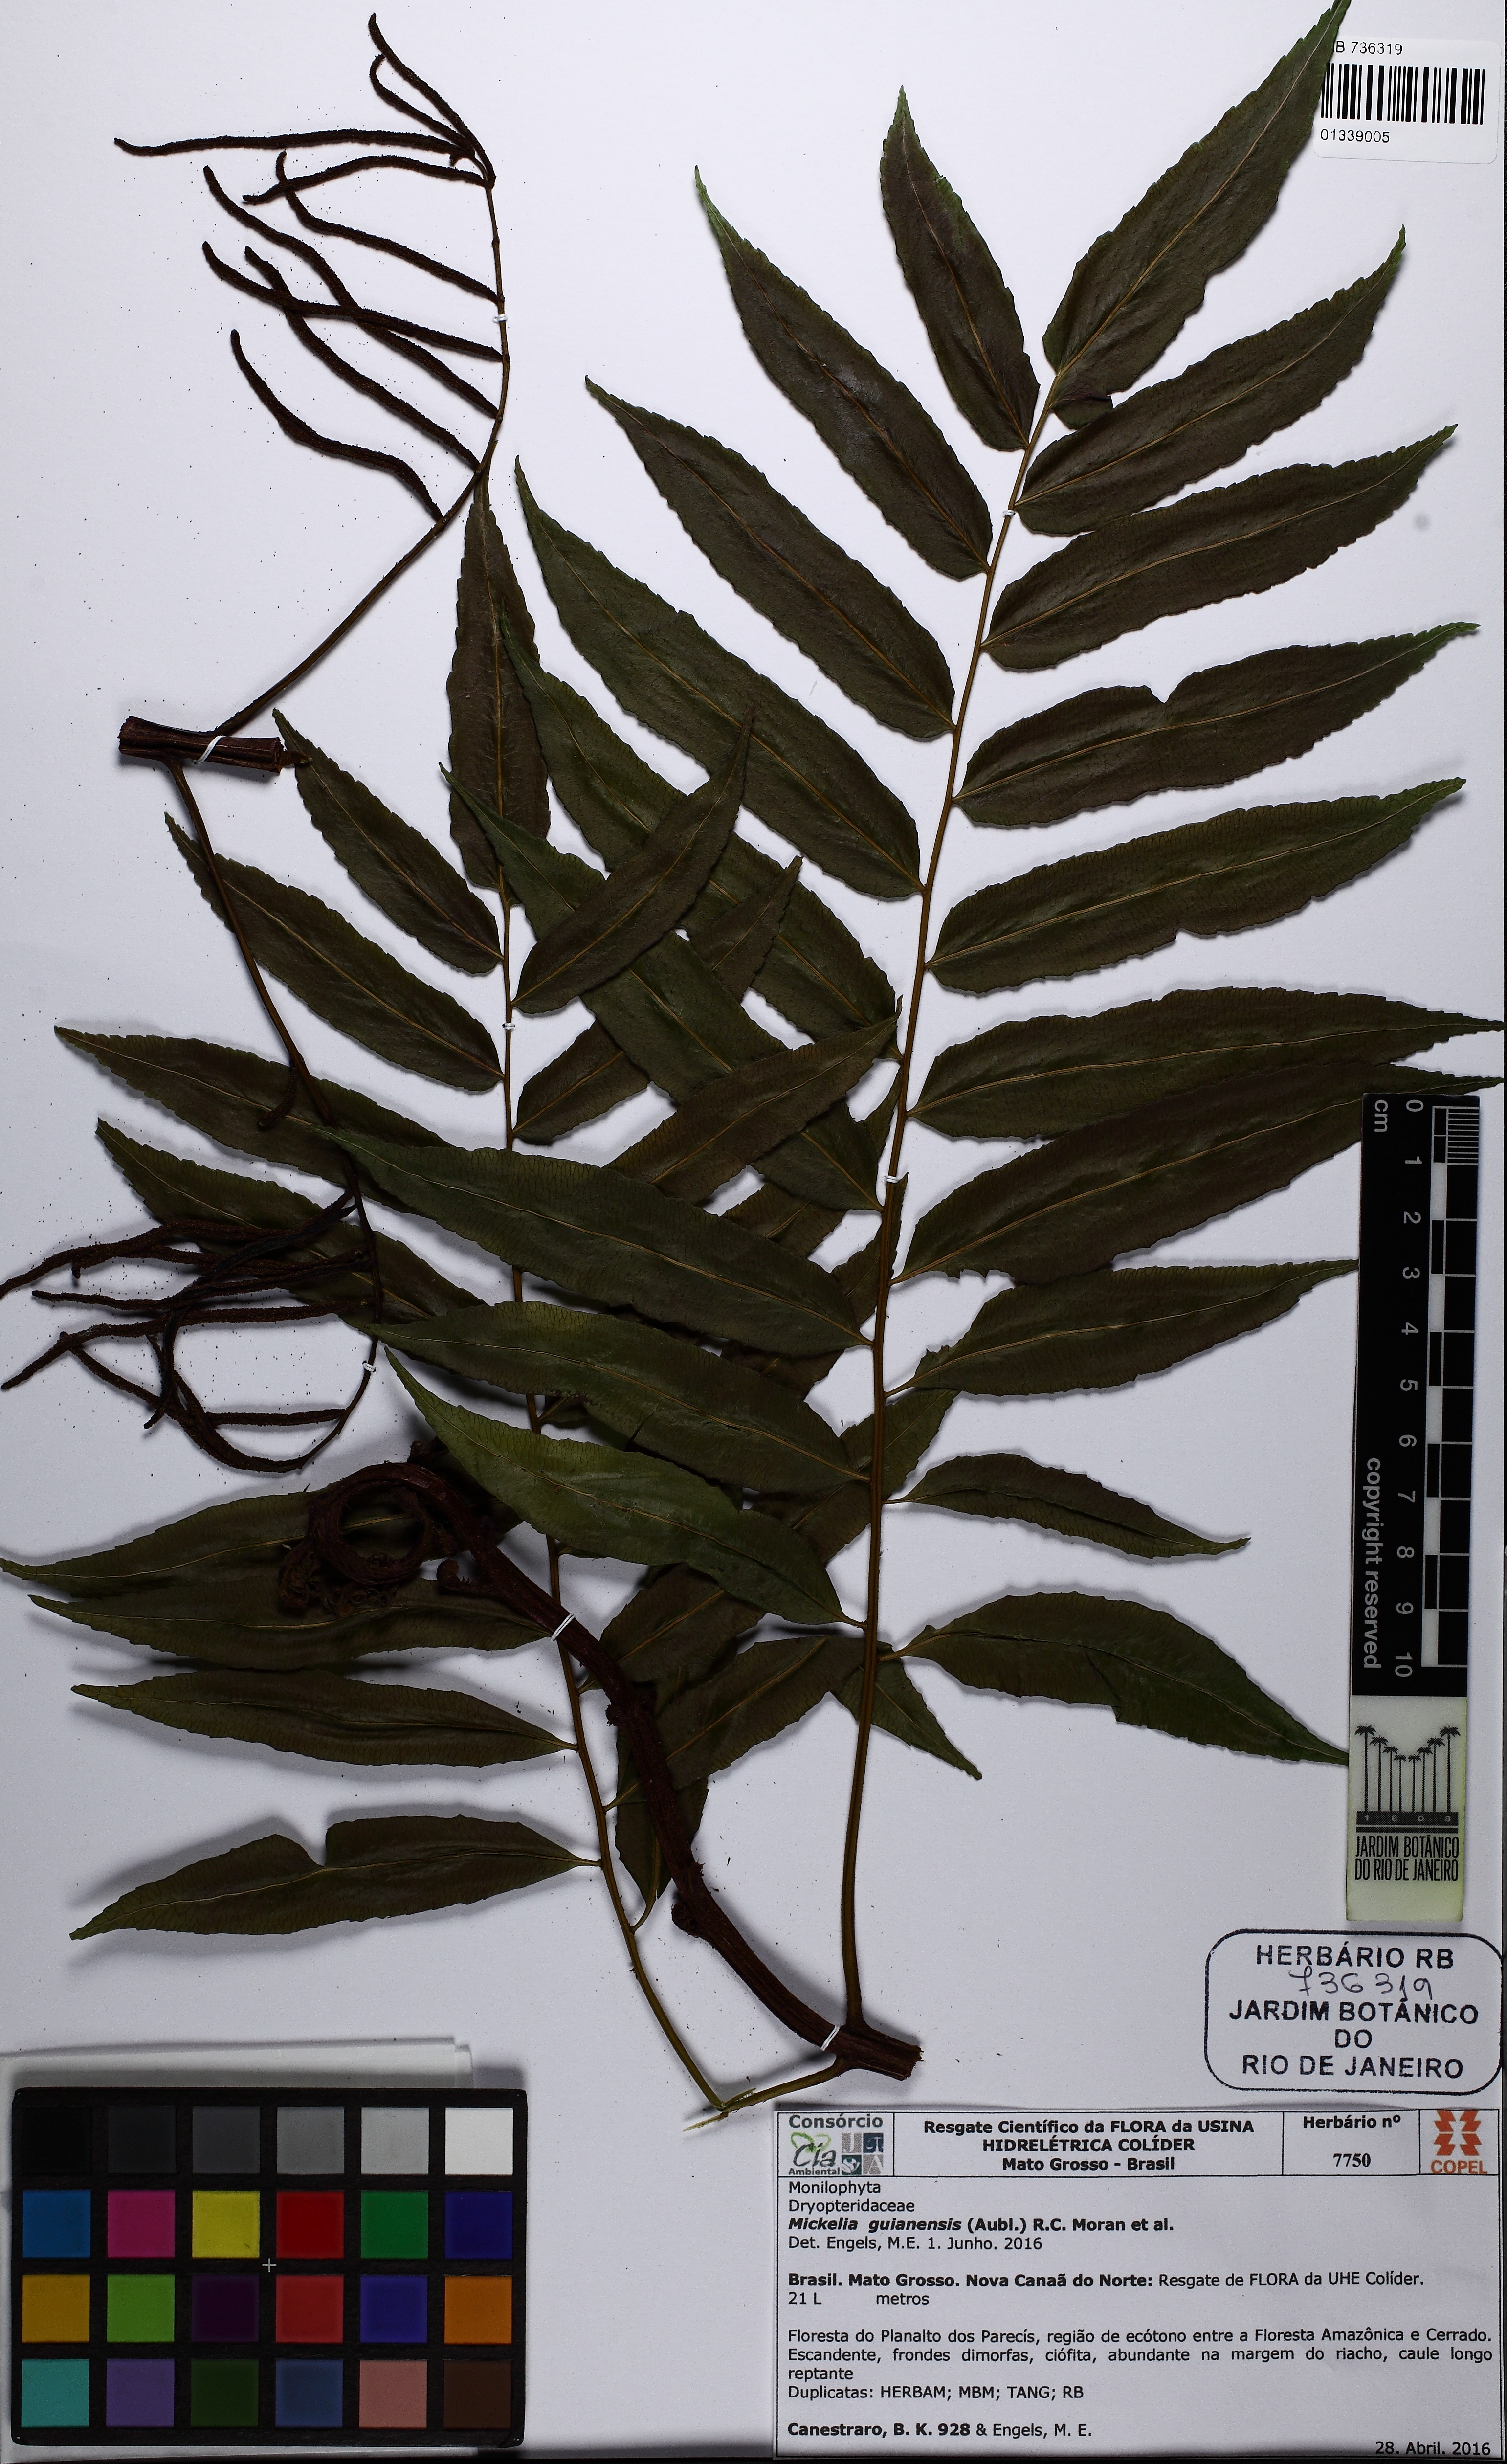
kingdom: Plantae
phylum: Tracheophyta
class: Polypodiopsida
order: Polypodiales
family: Dryopteridaceae
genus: Mickelia
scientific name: Mickelia guianensis
